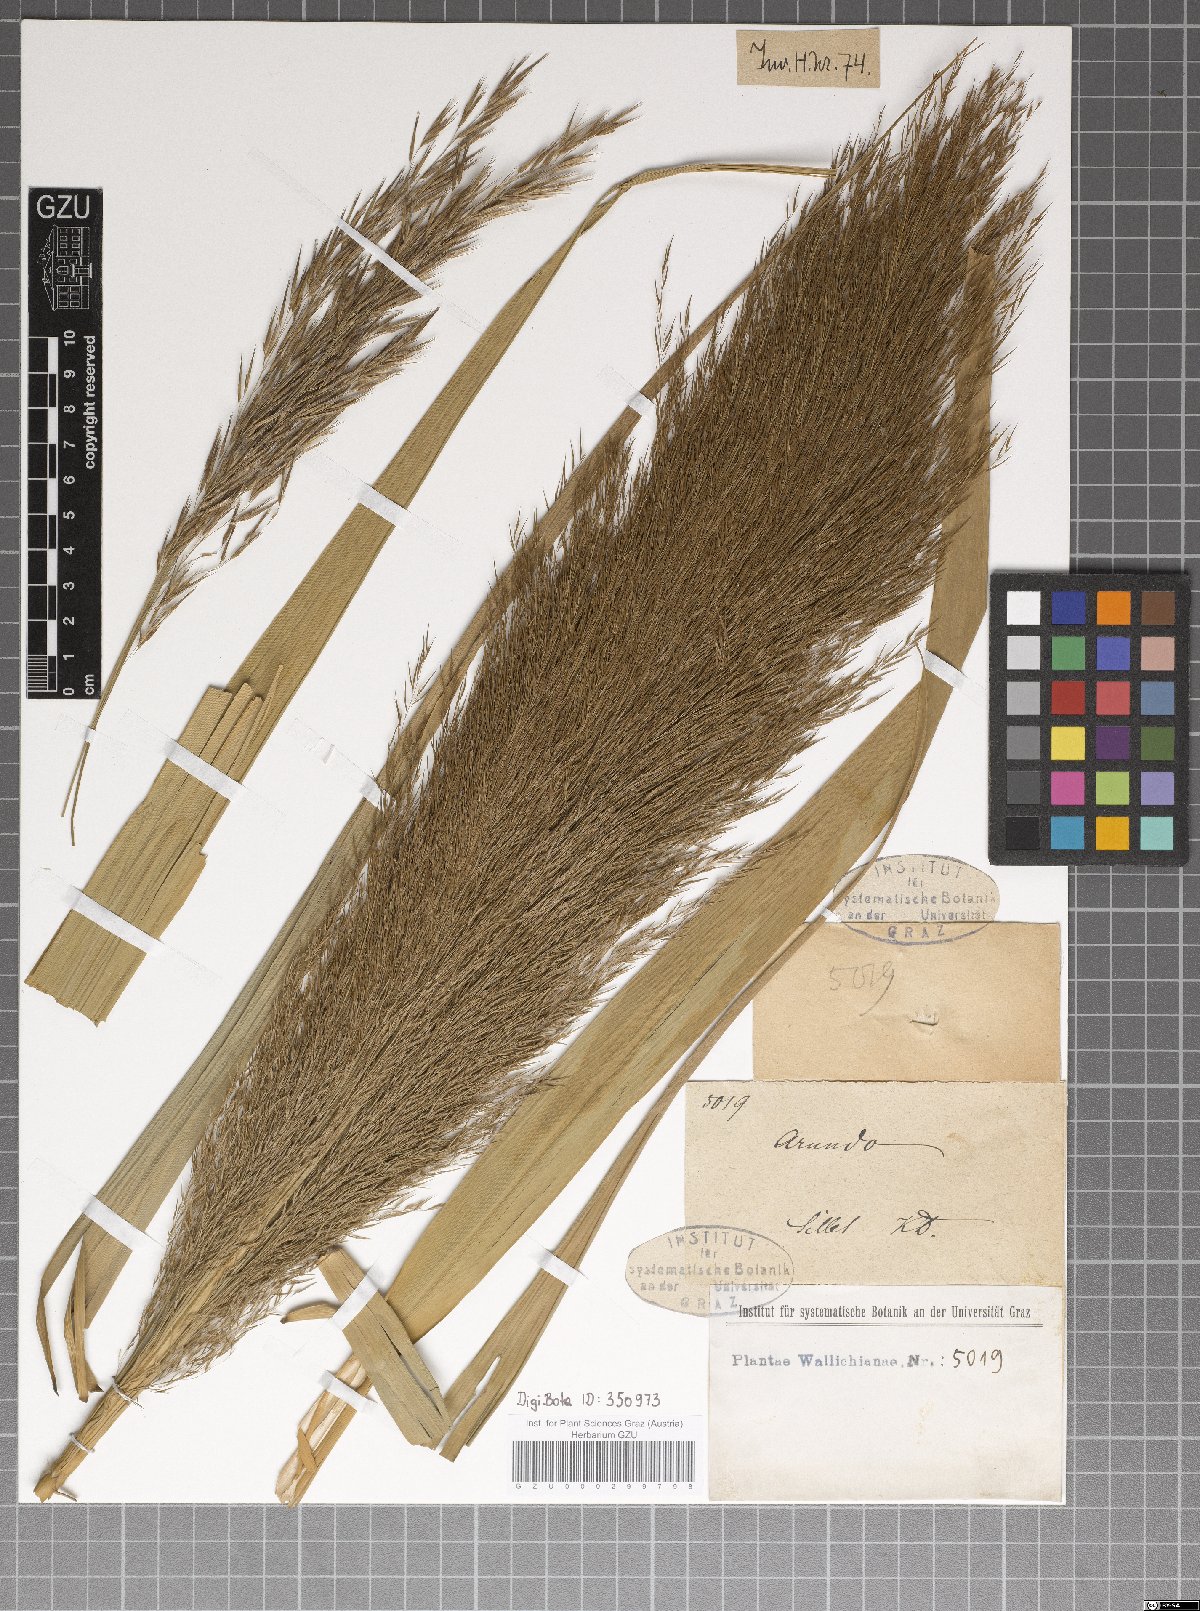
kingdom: Plantae
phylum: Tracheophyta
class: Liliopsida
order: Poales
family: Poaceae
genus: Arundo
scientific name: Arundo
